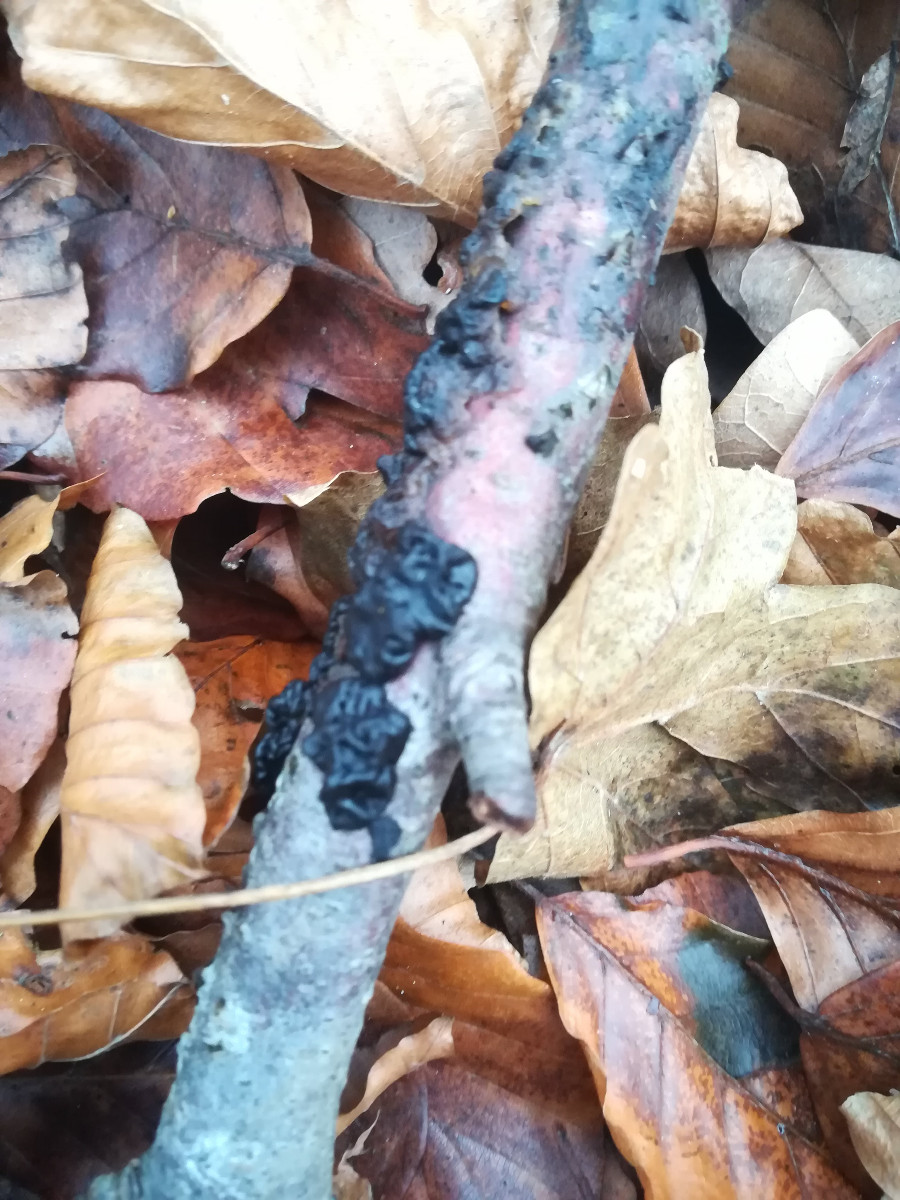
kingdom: Fungi
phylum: Basidiomycota
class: Agaricomycetes
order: Auriculariales
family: Auriculariaceae
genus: Exidia
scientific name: Exidia nigricans
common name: almindelig bævretop
